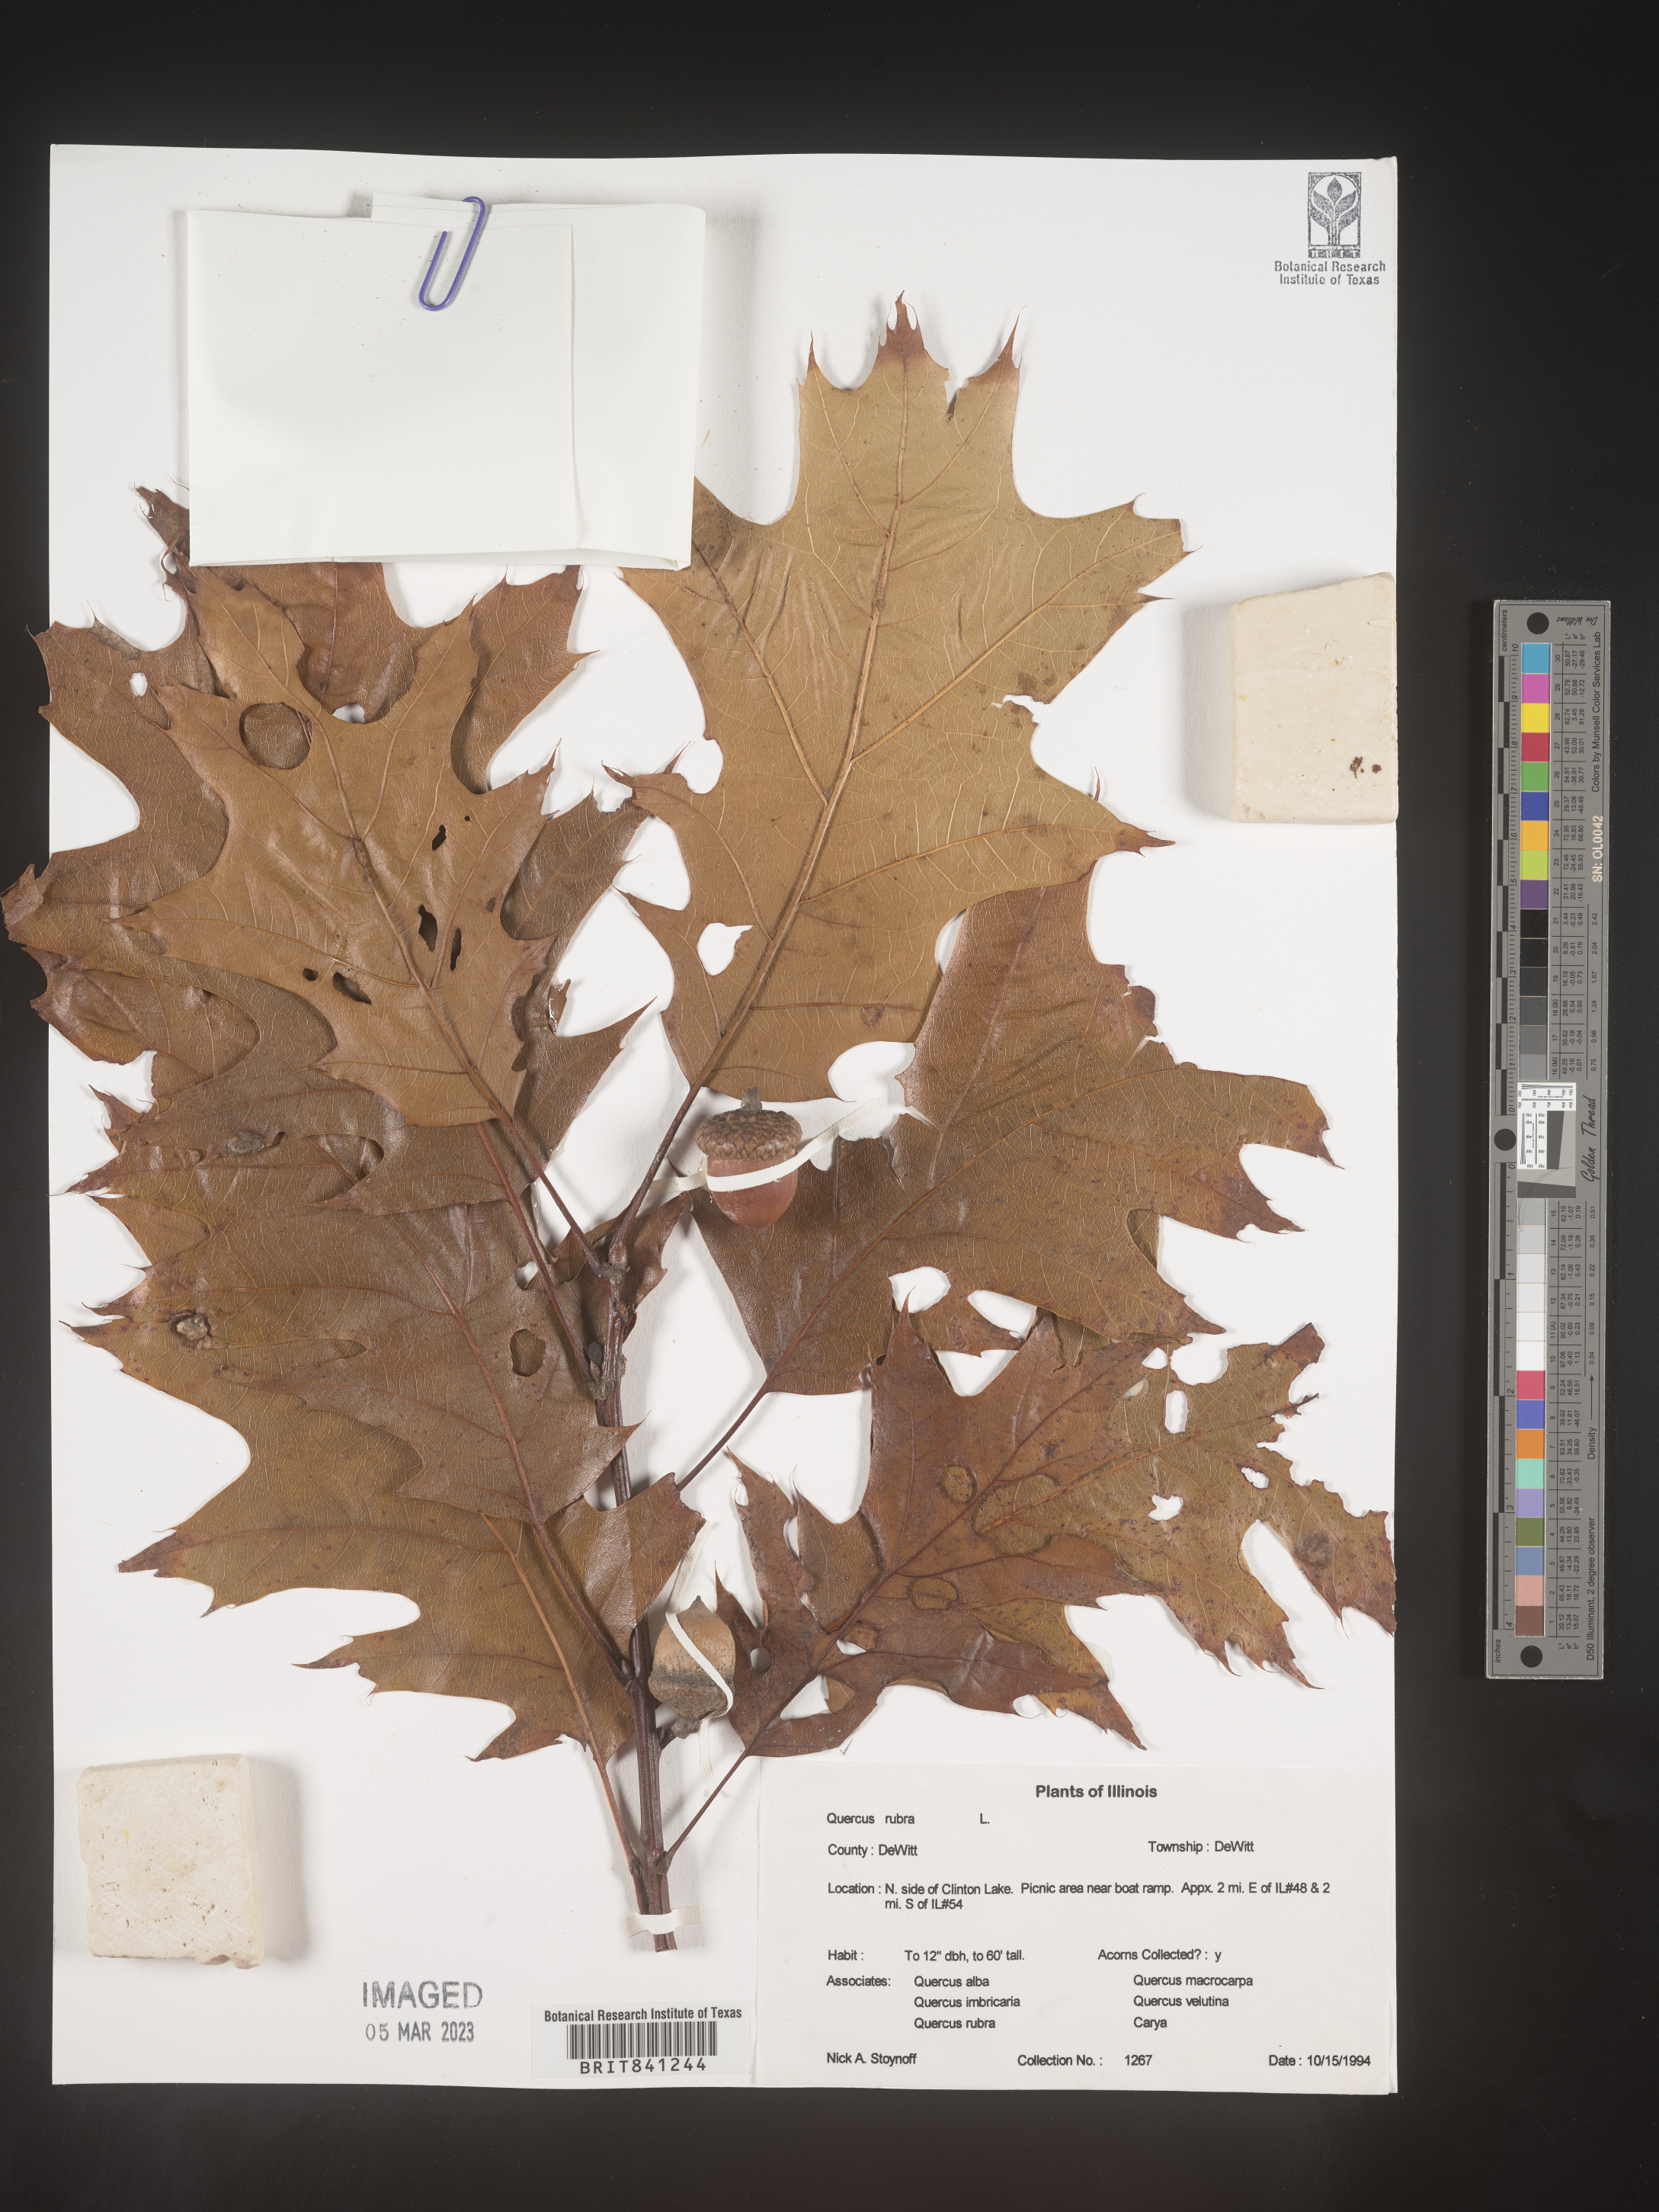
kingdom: Plantae
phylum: Tracheophyta
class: Magnoliopsida
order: Fagales
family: Fagaceae
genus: Quercus
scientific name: Quercus rubra
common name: Red oak
